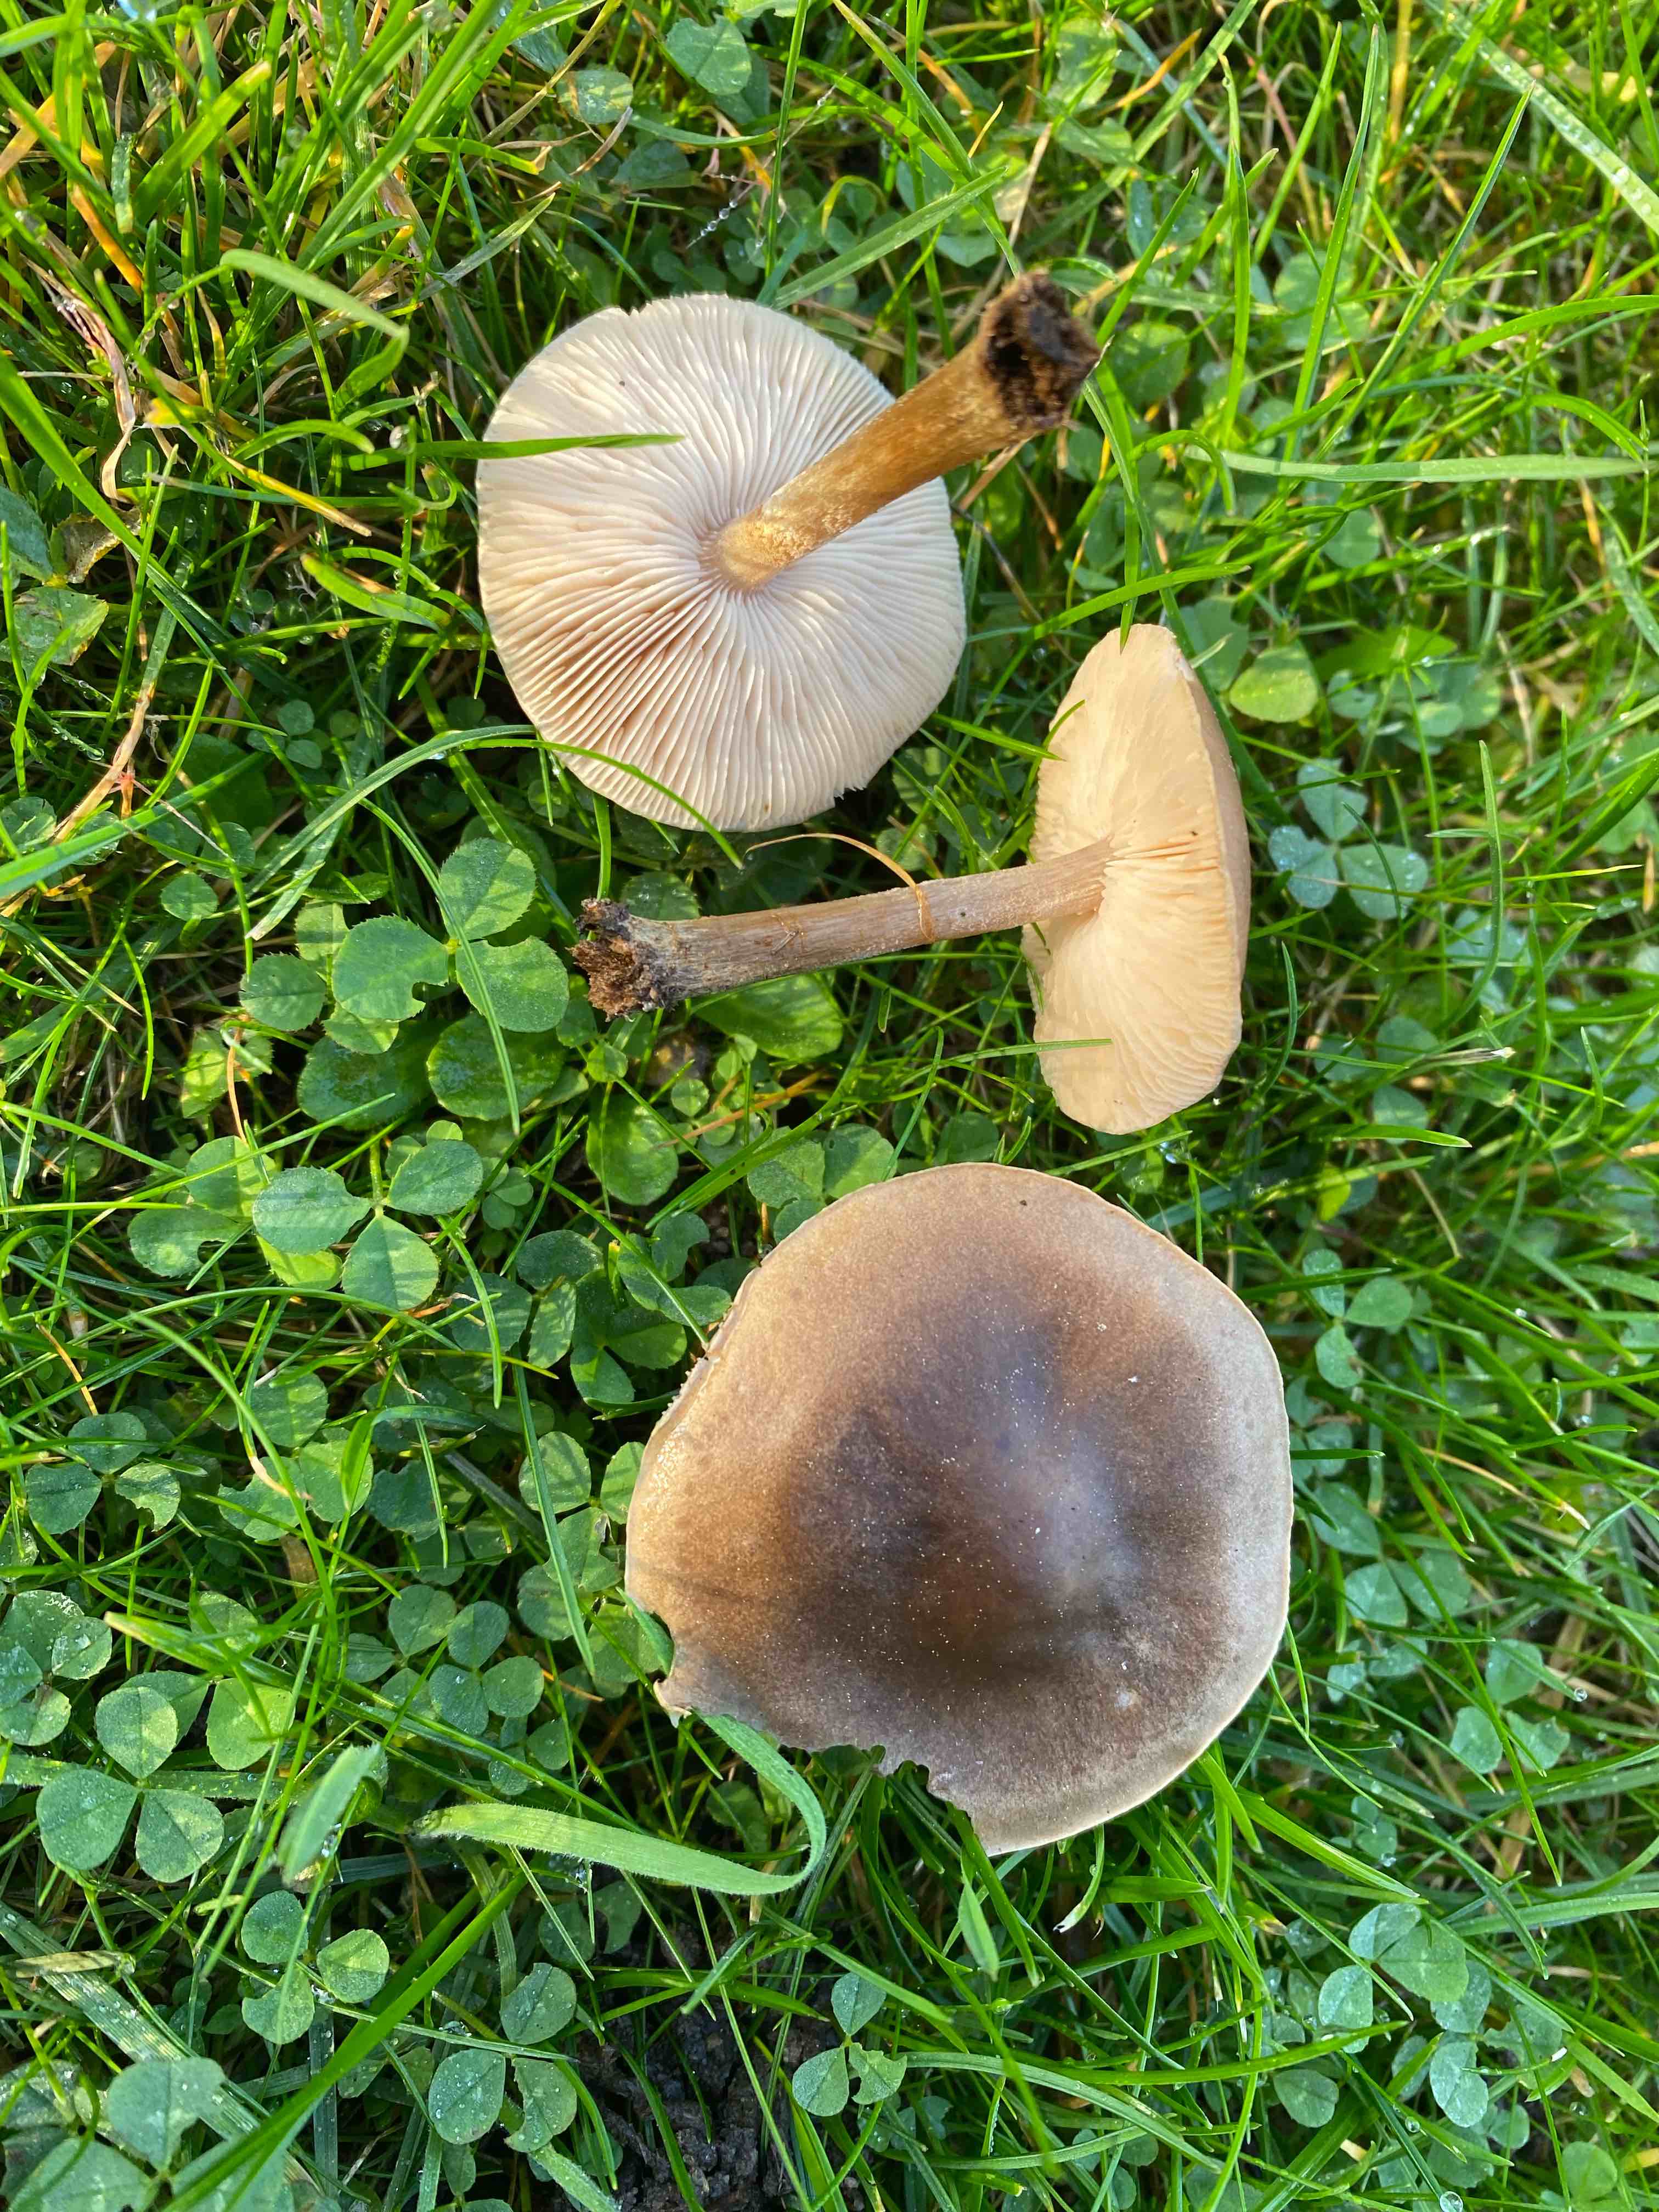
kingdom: Fungi
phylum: Basidiomycota
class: Agaricomycetes
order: Agaricales
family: Tricholomataceae
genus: Melanoleuca
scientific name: Melanoleuca
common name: munkehat
